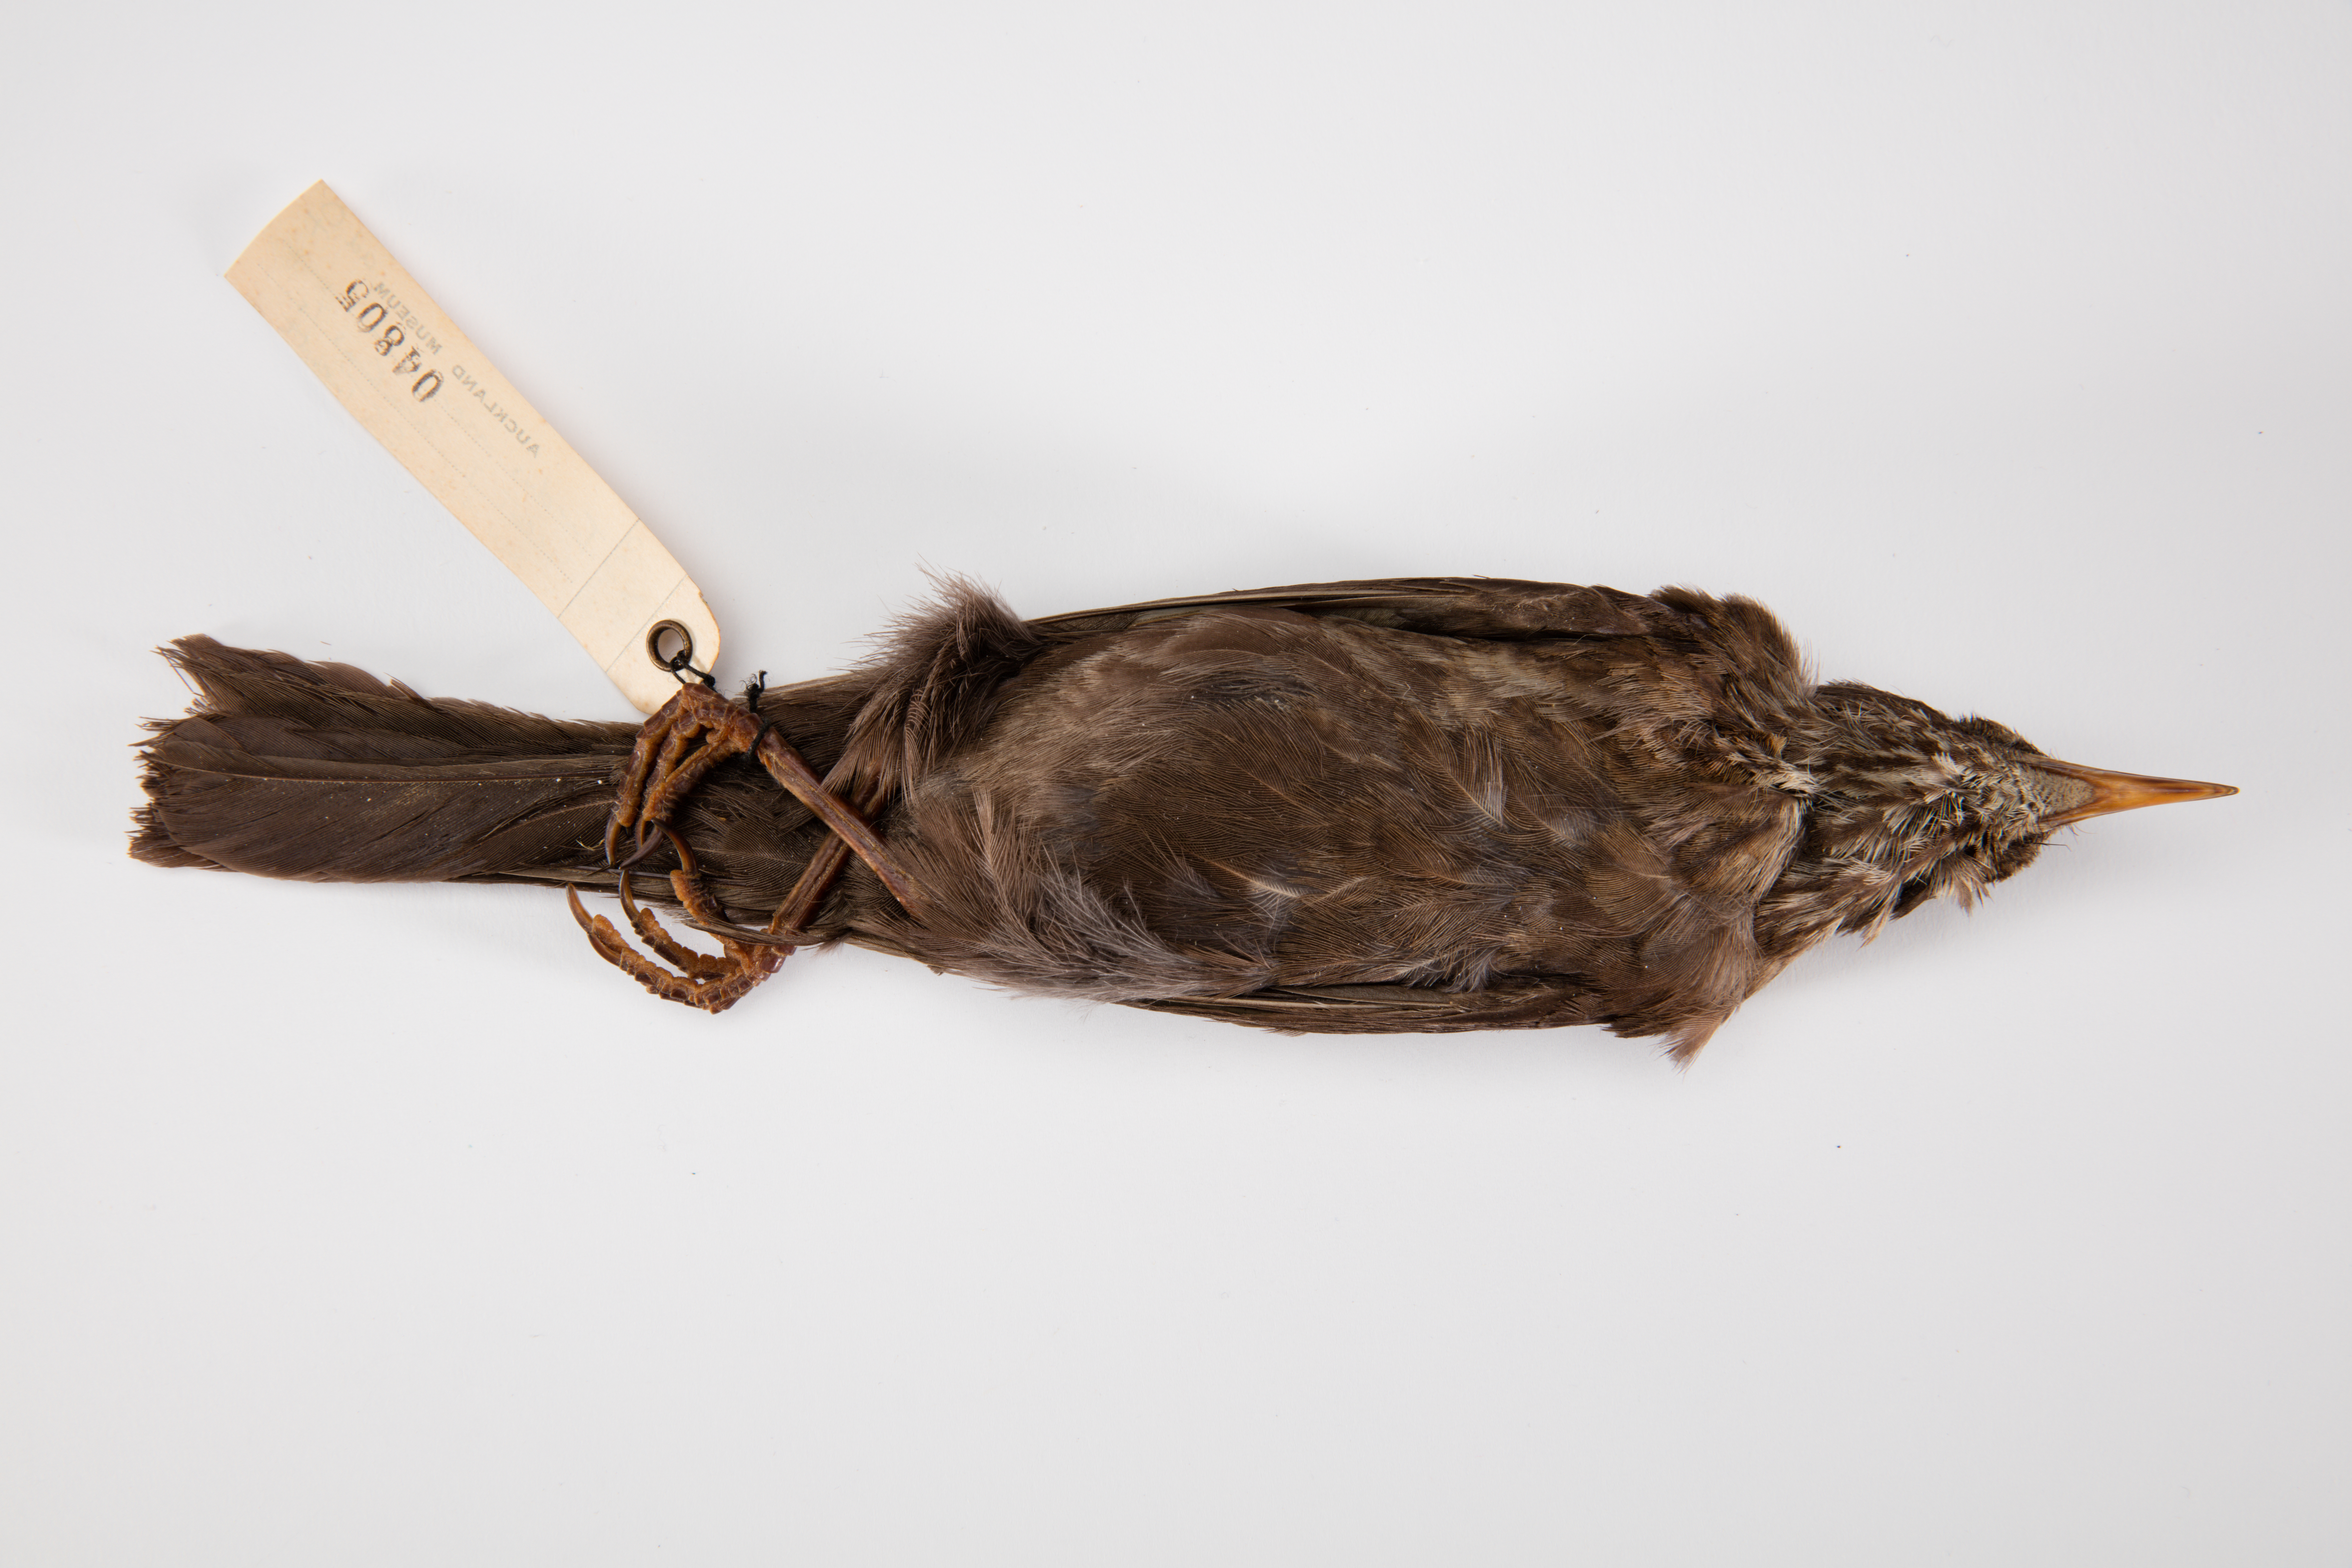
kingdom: Animalia
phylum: Chordata
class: Aves
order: Passeriformes
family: Turdidae
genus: Turdus
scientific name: Turdus merula
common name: Common blackbird
